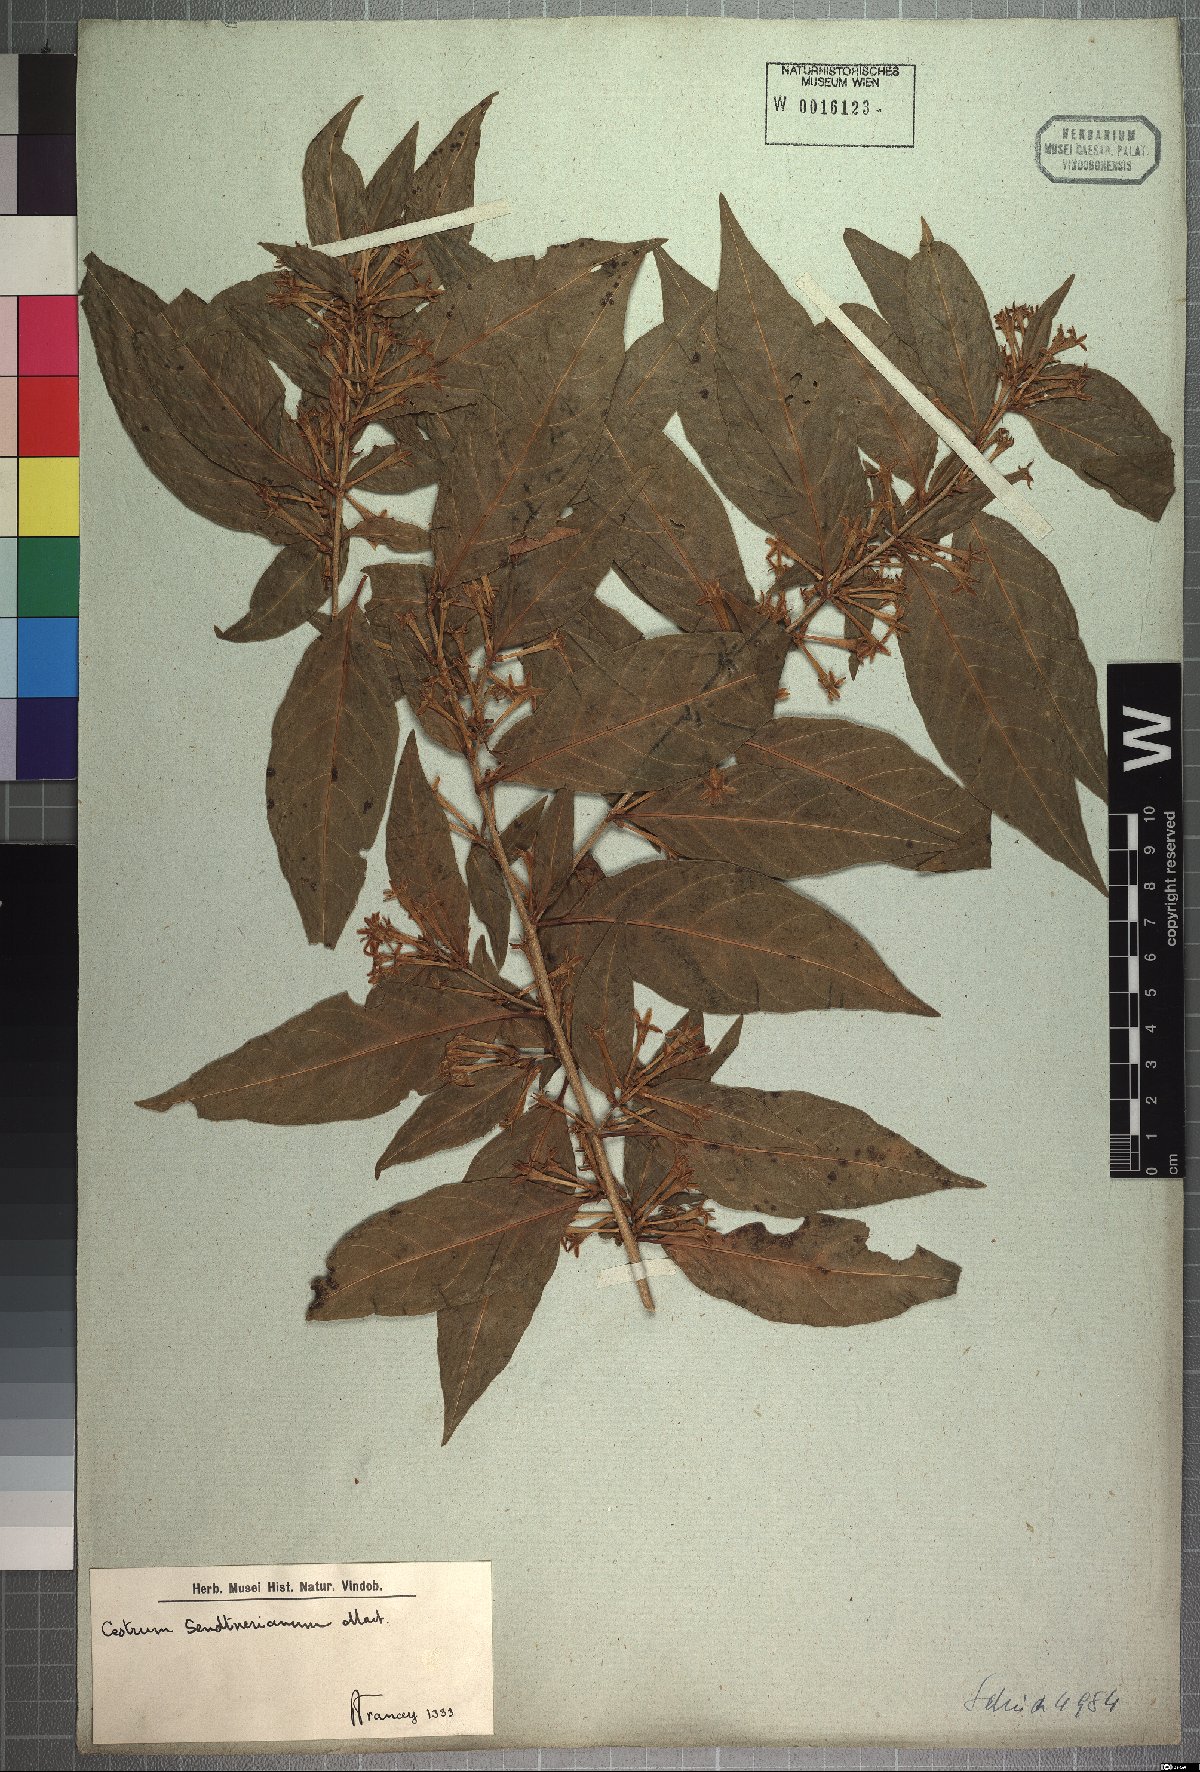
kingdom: Plantae
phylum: Tracheophyta
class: Magnoliopsida
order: Solanales
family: Solanaceae
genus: Cestrum
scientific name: Cestrum mariquitense
